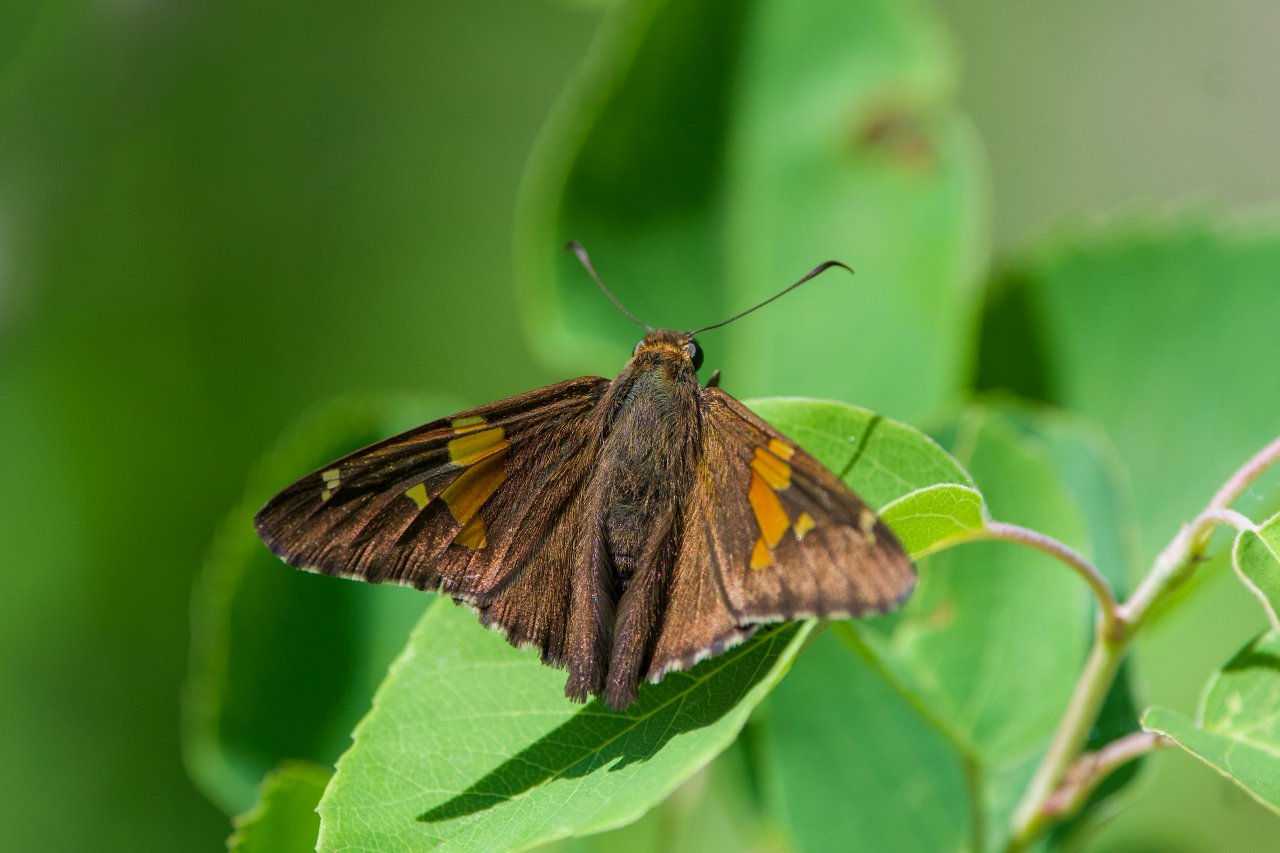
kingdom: Animalia
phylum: Arthropoda
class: Insecta
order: Lepidoptera
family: Hesperiidae
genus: Epargyreus
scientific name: Epargyreus clarus
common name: Silver-spotted Skipper
